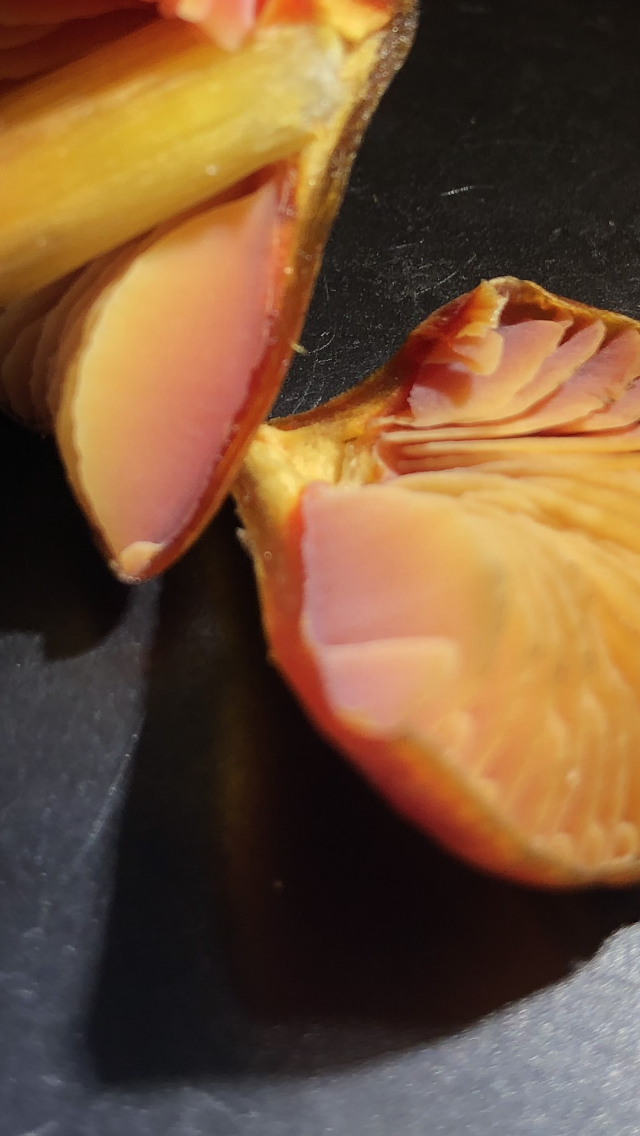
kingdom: Fungi
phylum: Basidiomycota
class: Agaricomycetes
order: Agaricales
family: Hygrophoraceae
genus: Hygrocybe
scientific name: Hygrocybe conicoides
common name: klit-vokshat
